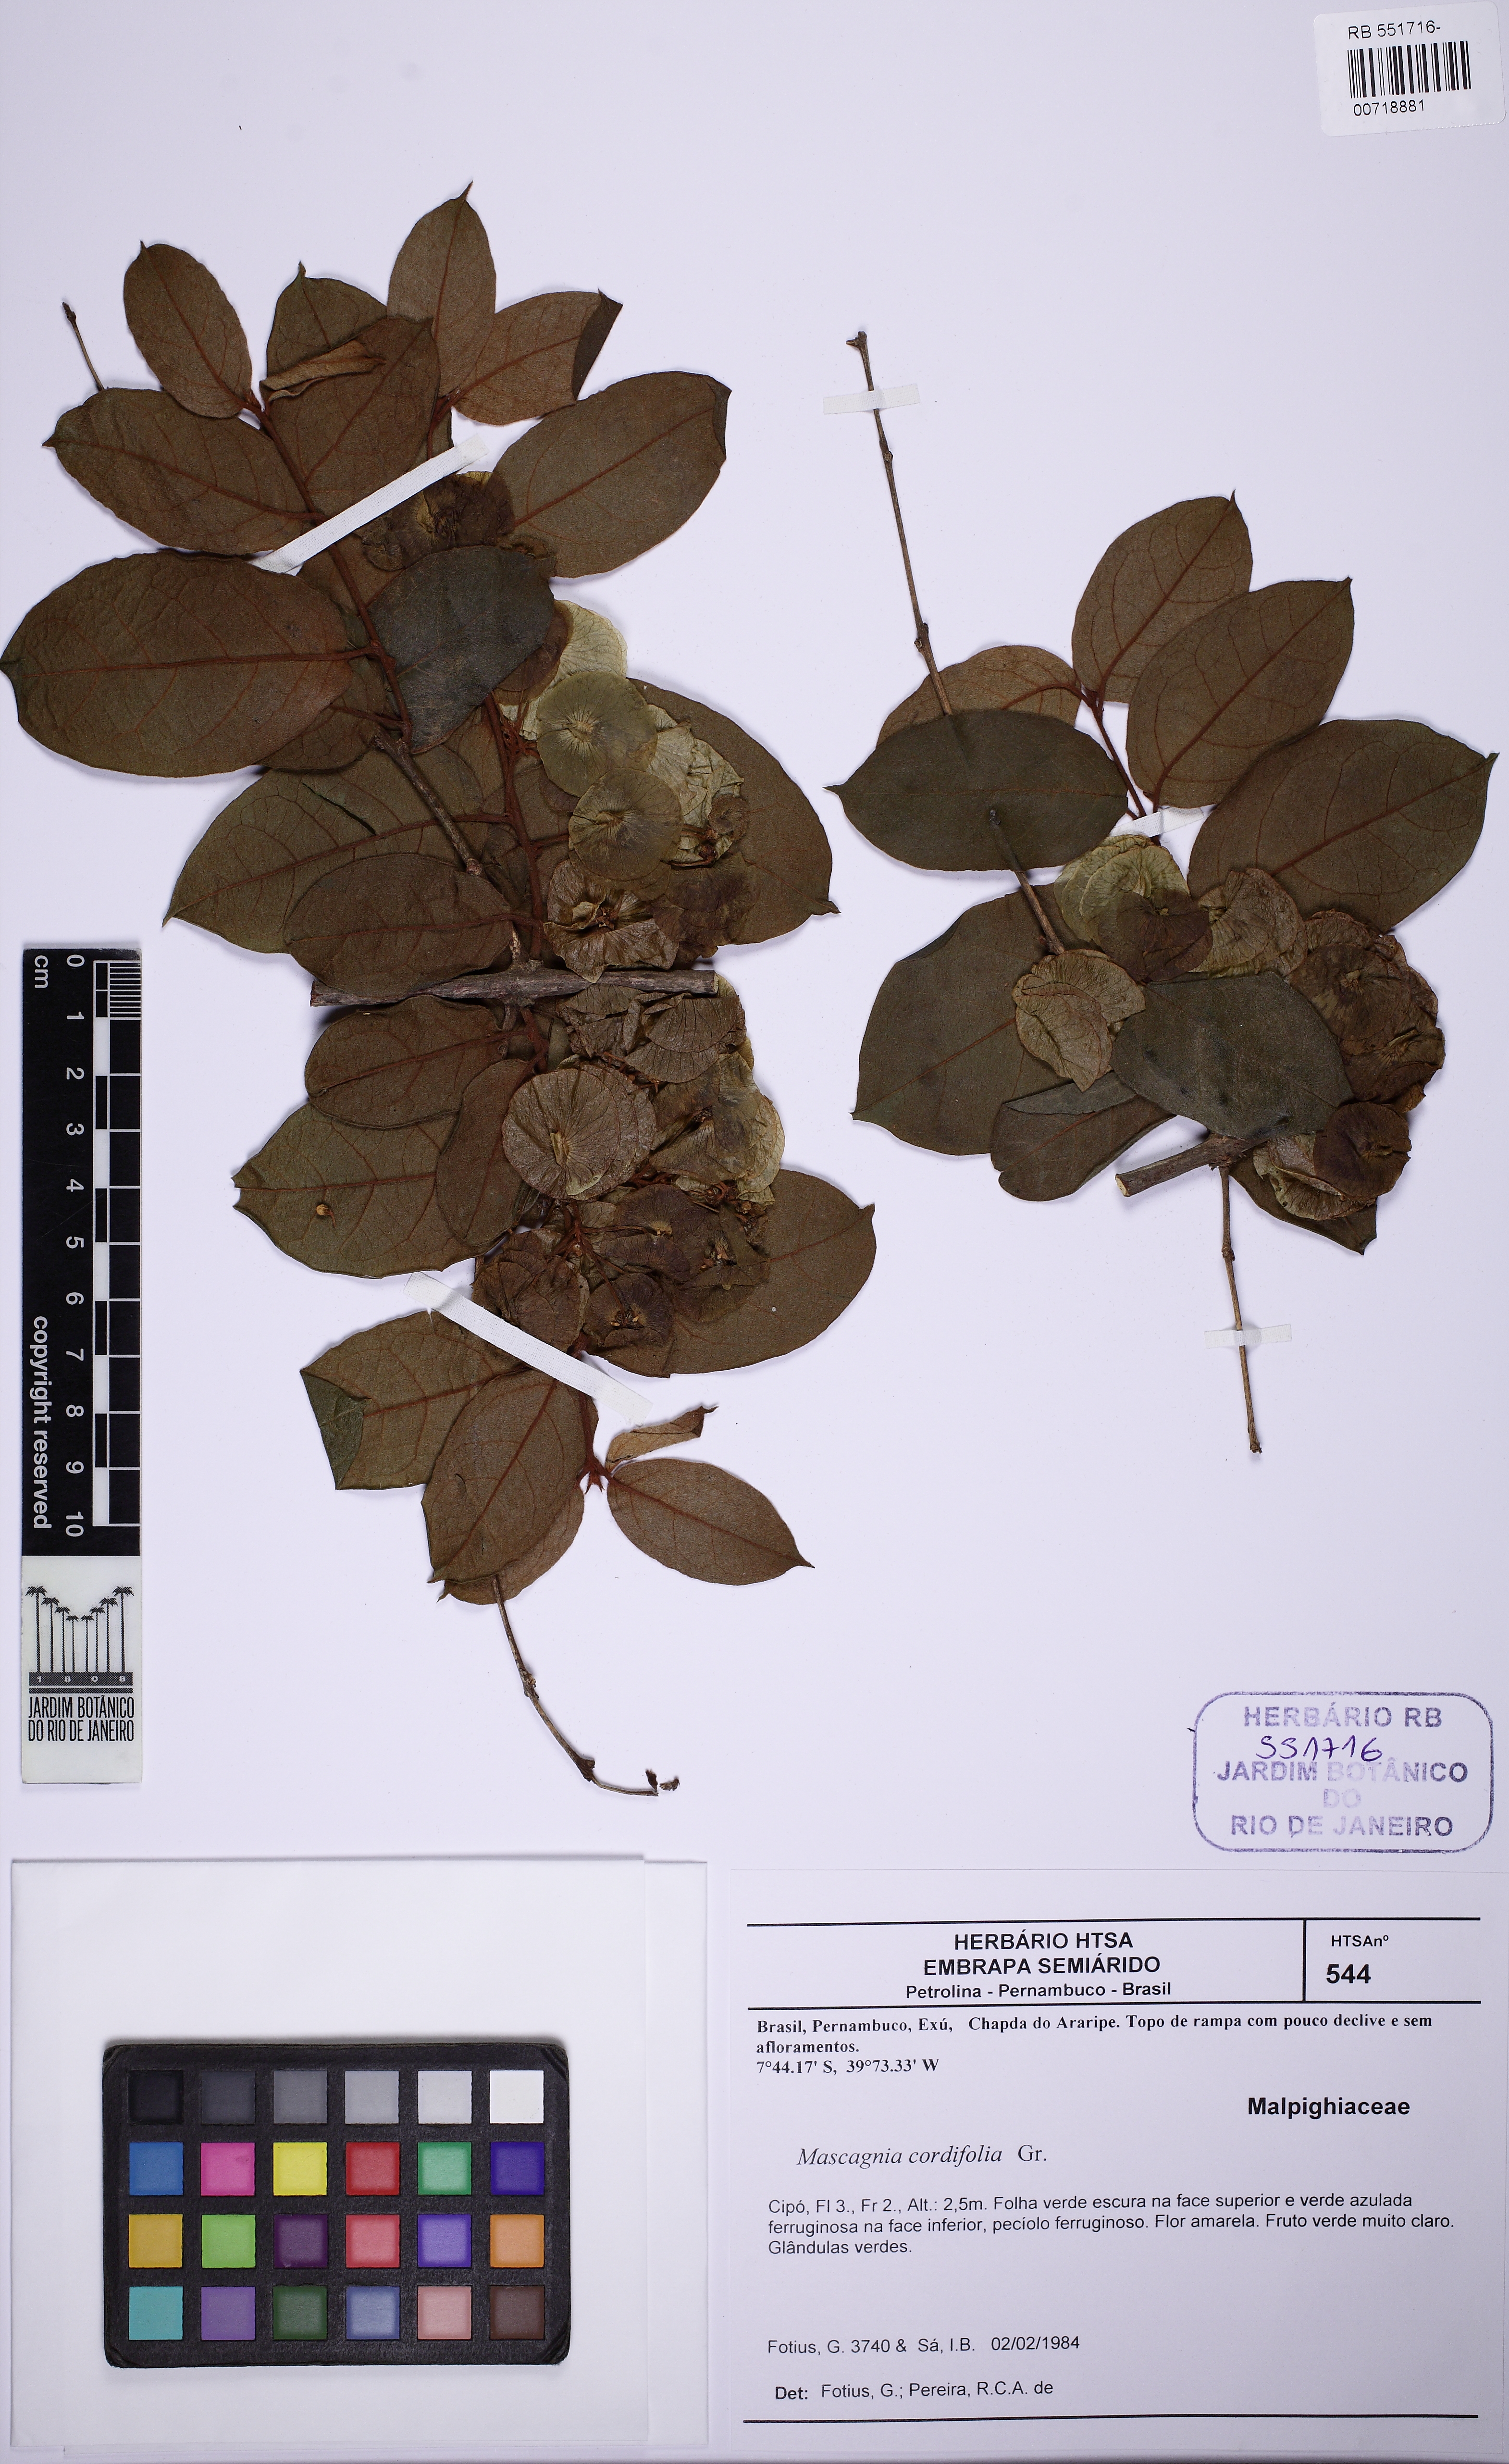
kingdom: Plantae
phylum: Tracheophyta
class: Magnoliopsida
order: Malpighiales
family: Malpighiaceae
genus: Mascagnia
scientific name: Mascagnia cordifolia
